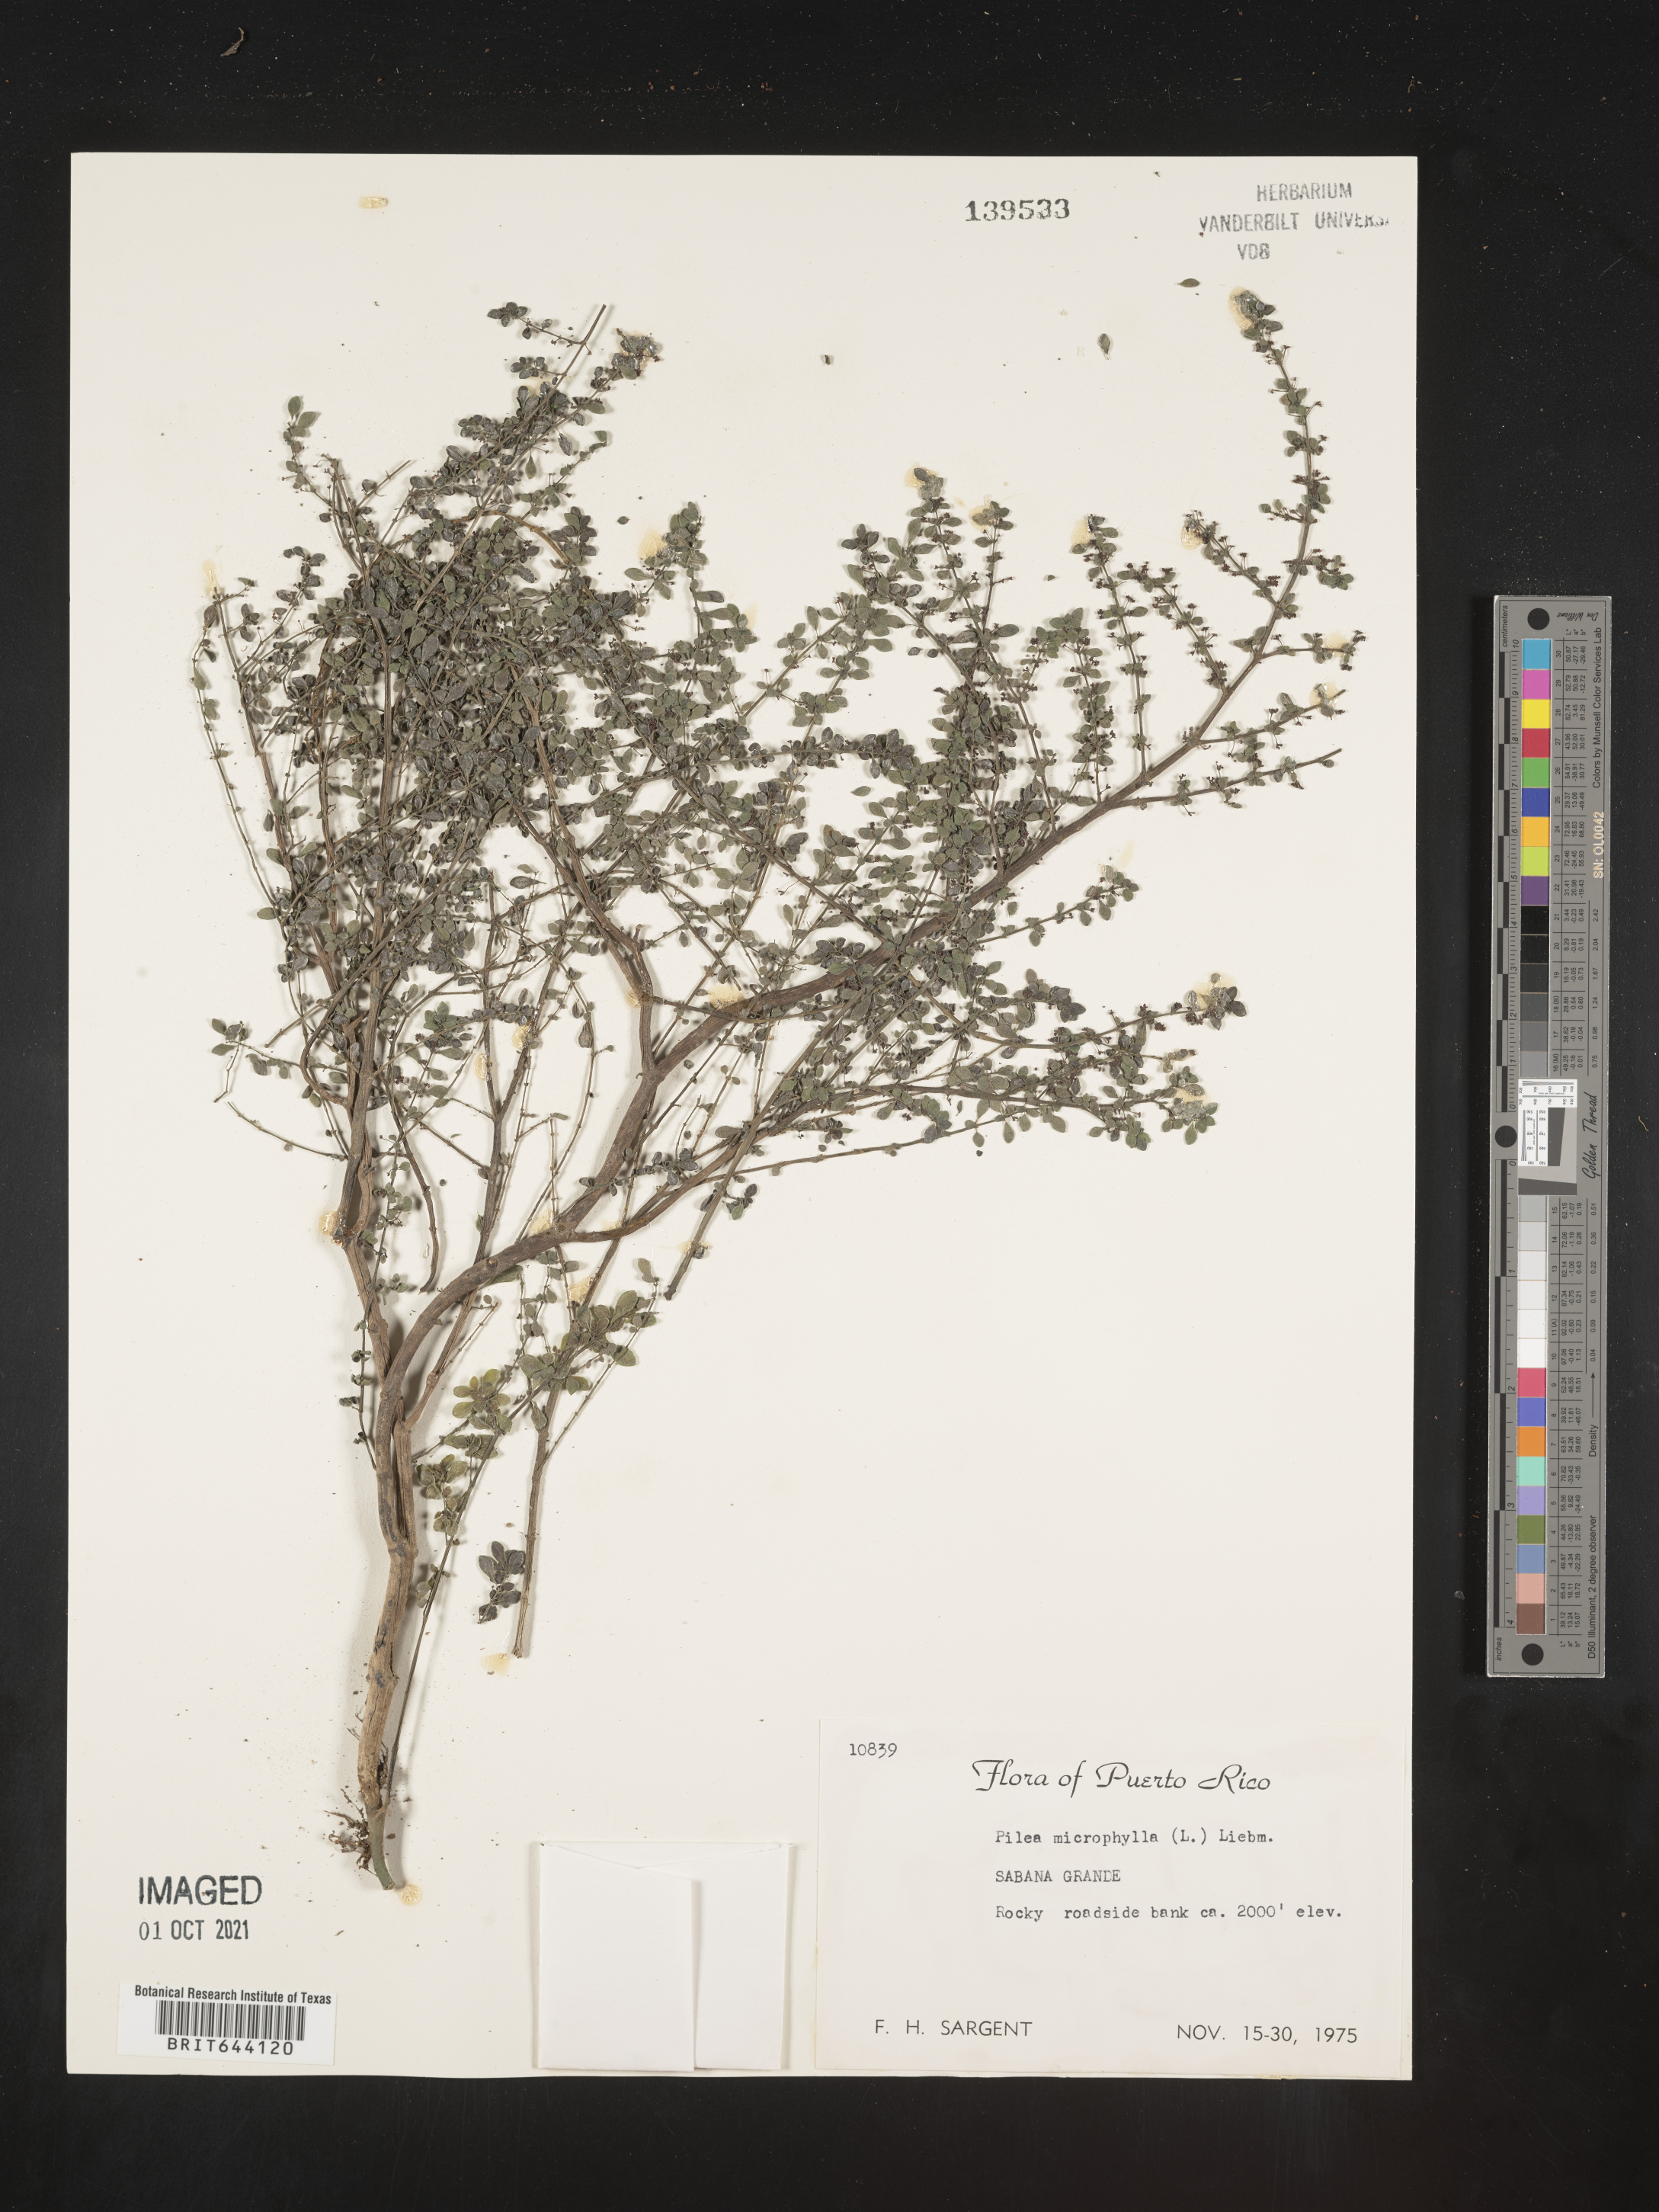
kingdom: Plantae
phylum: Tracheophyta
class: Magnoliopsida
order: Rosales
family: Urticaceae
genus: Pilea
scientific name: Pilea
